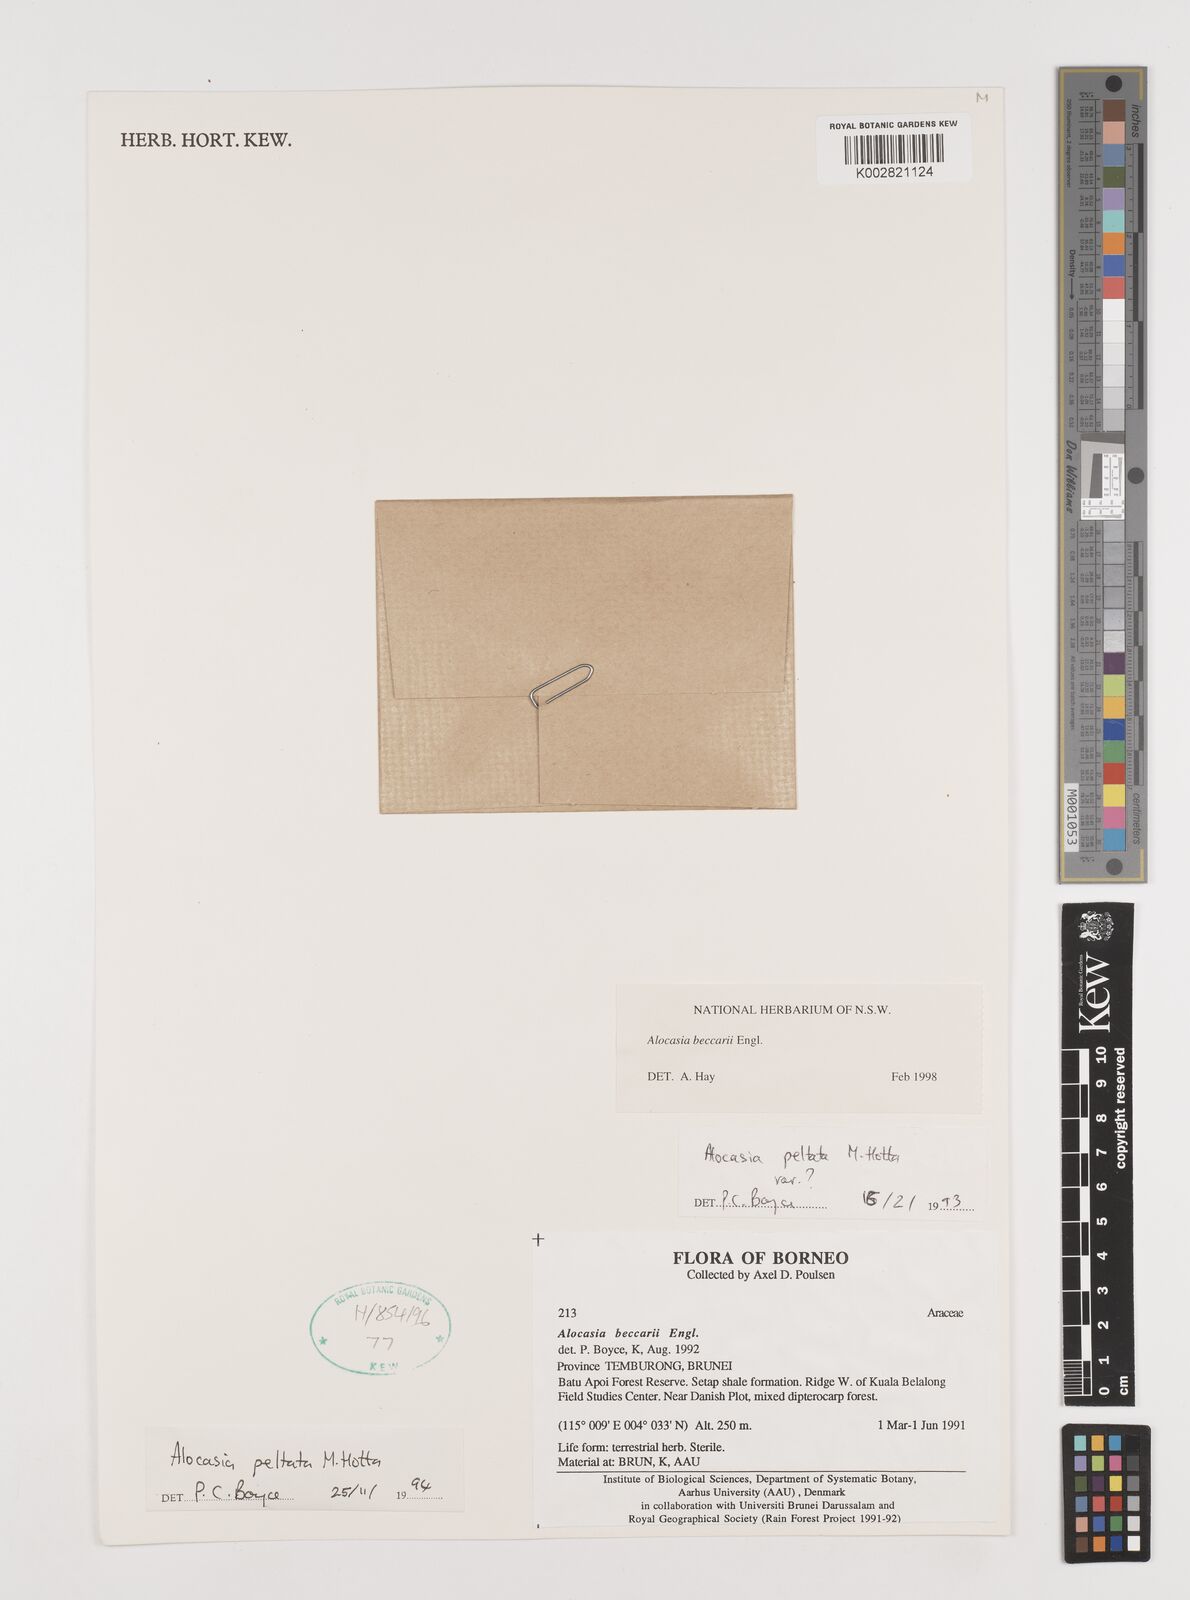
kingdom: Plantae
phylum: Tracheophyta
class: Liliopsida
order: Alismatales
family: Araceae
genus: Alocasia
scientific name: Alocasia beccarii
